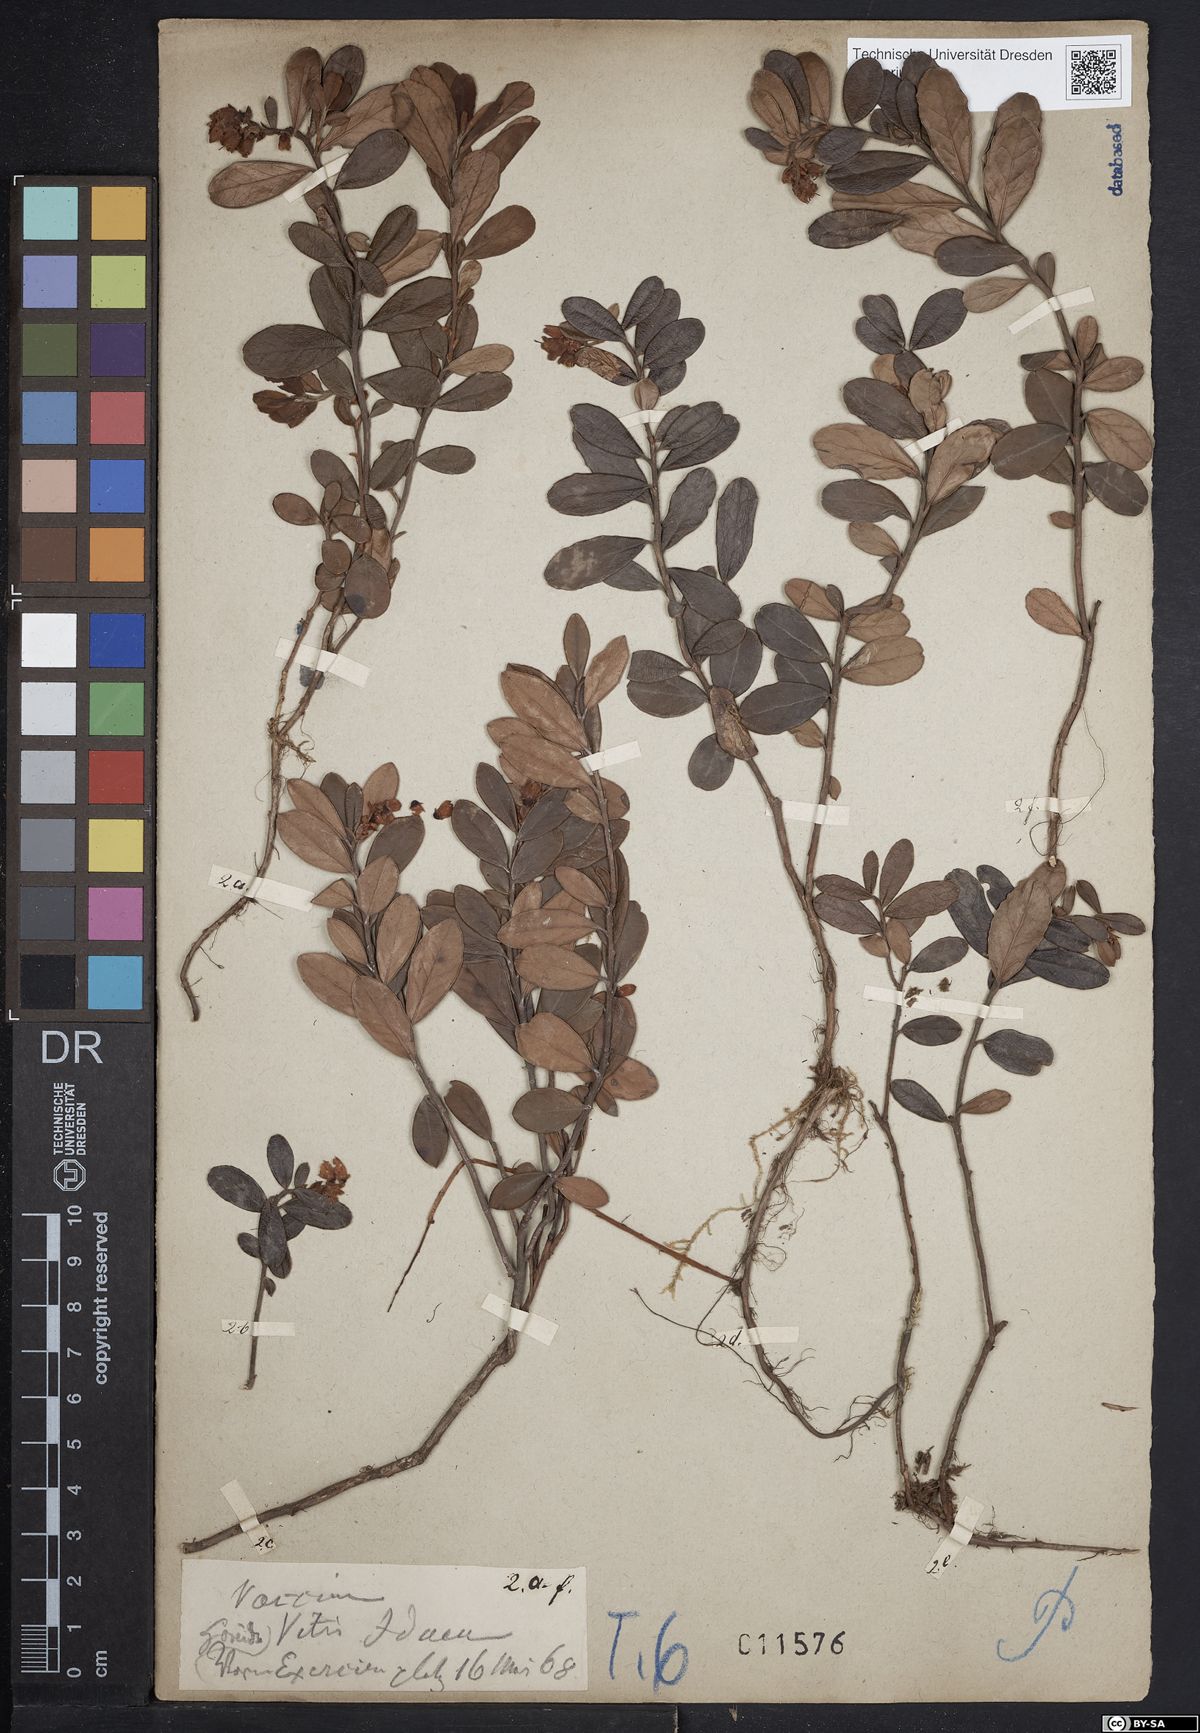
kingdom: Plantae
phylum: Tracheophyta
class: Magnoliopsida
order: Ericales
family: Ericaceae
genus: Vaccinium
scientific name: Vaccinium vitis-idaea
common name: Cowberry
